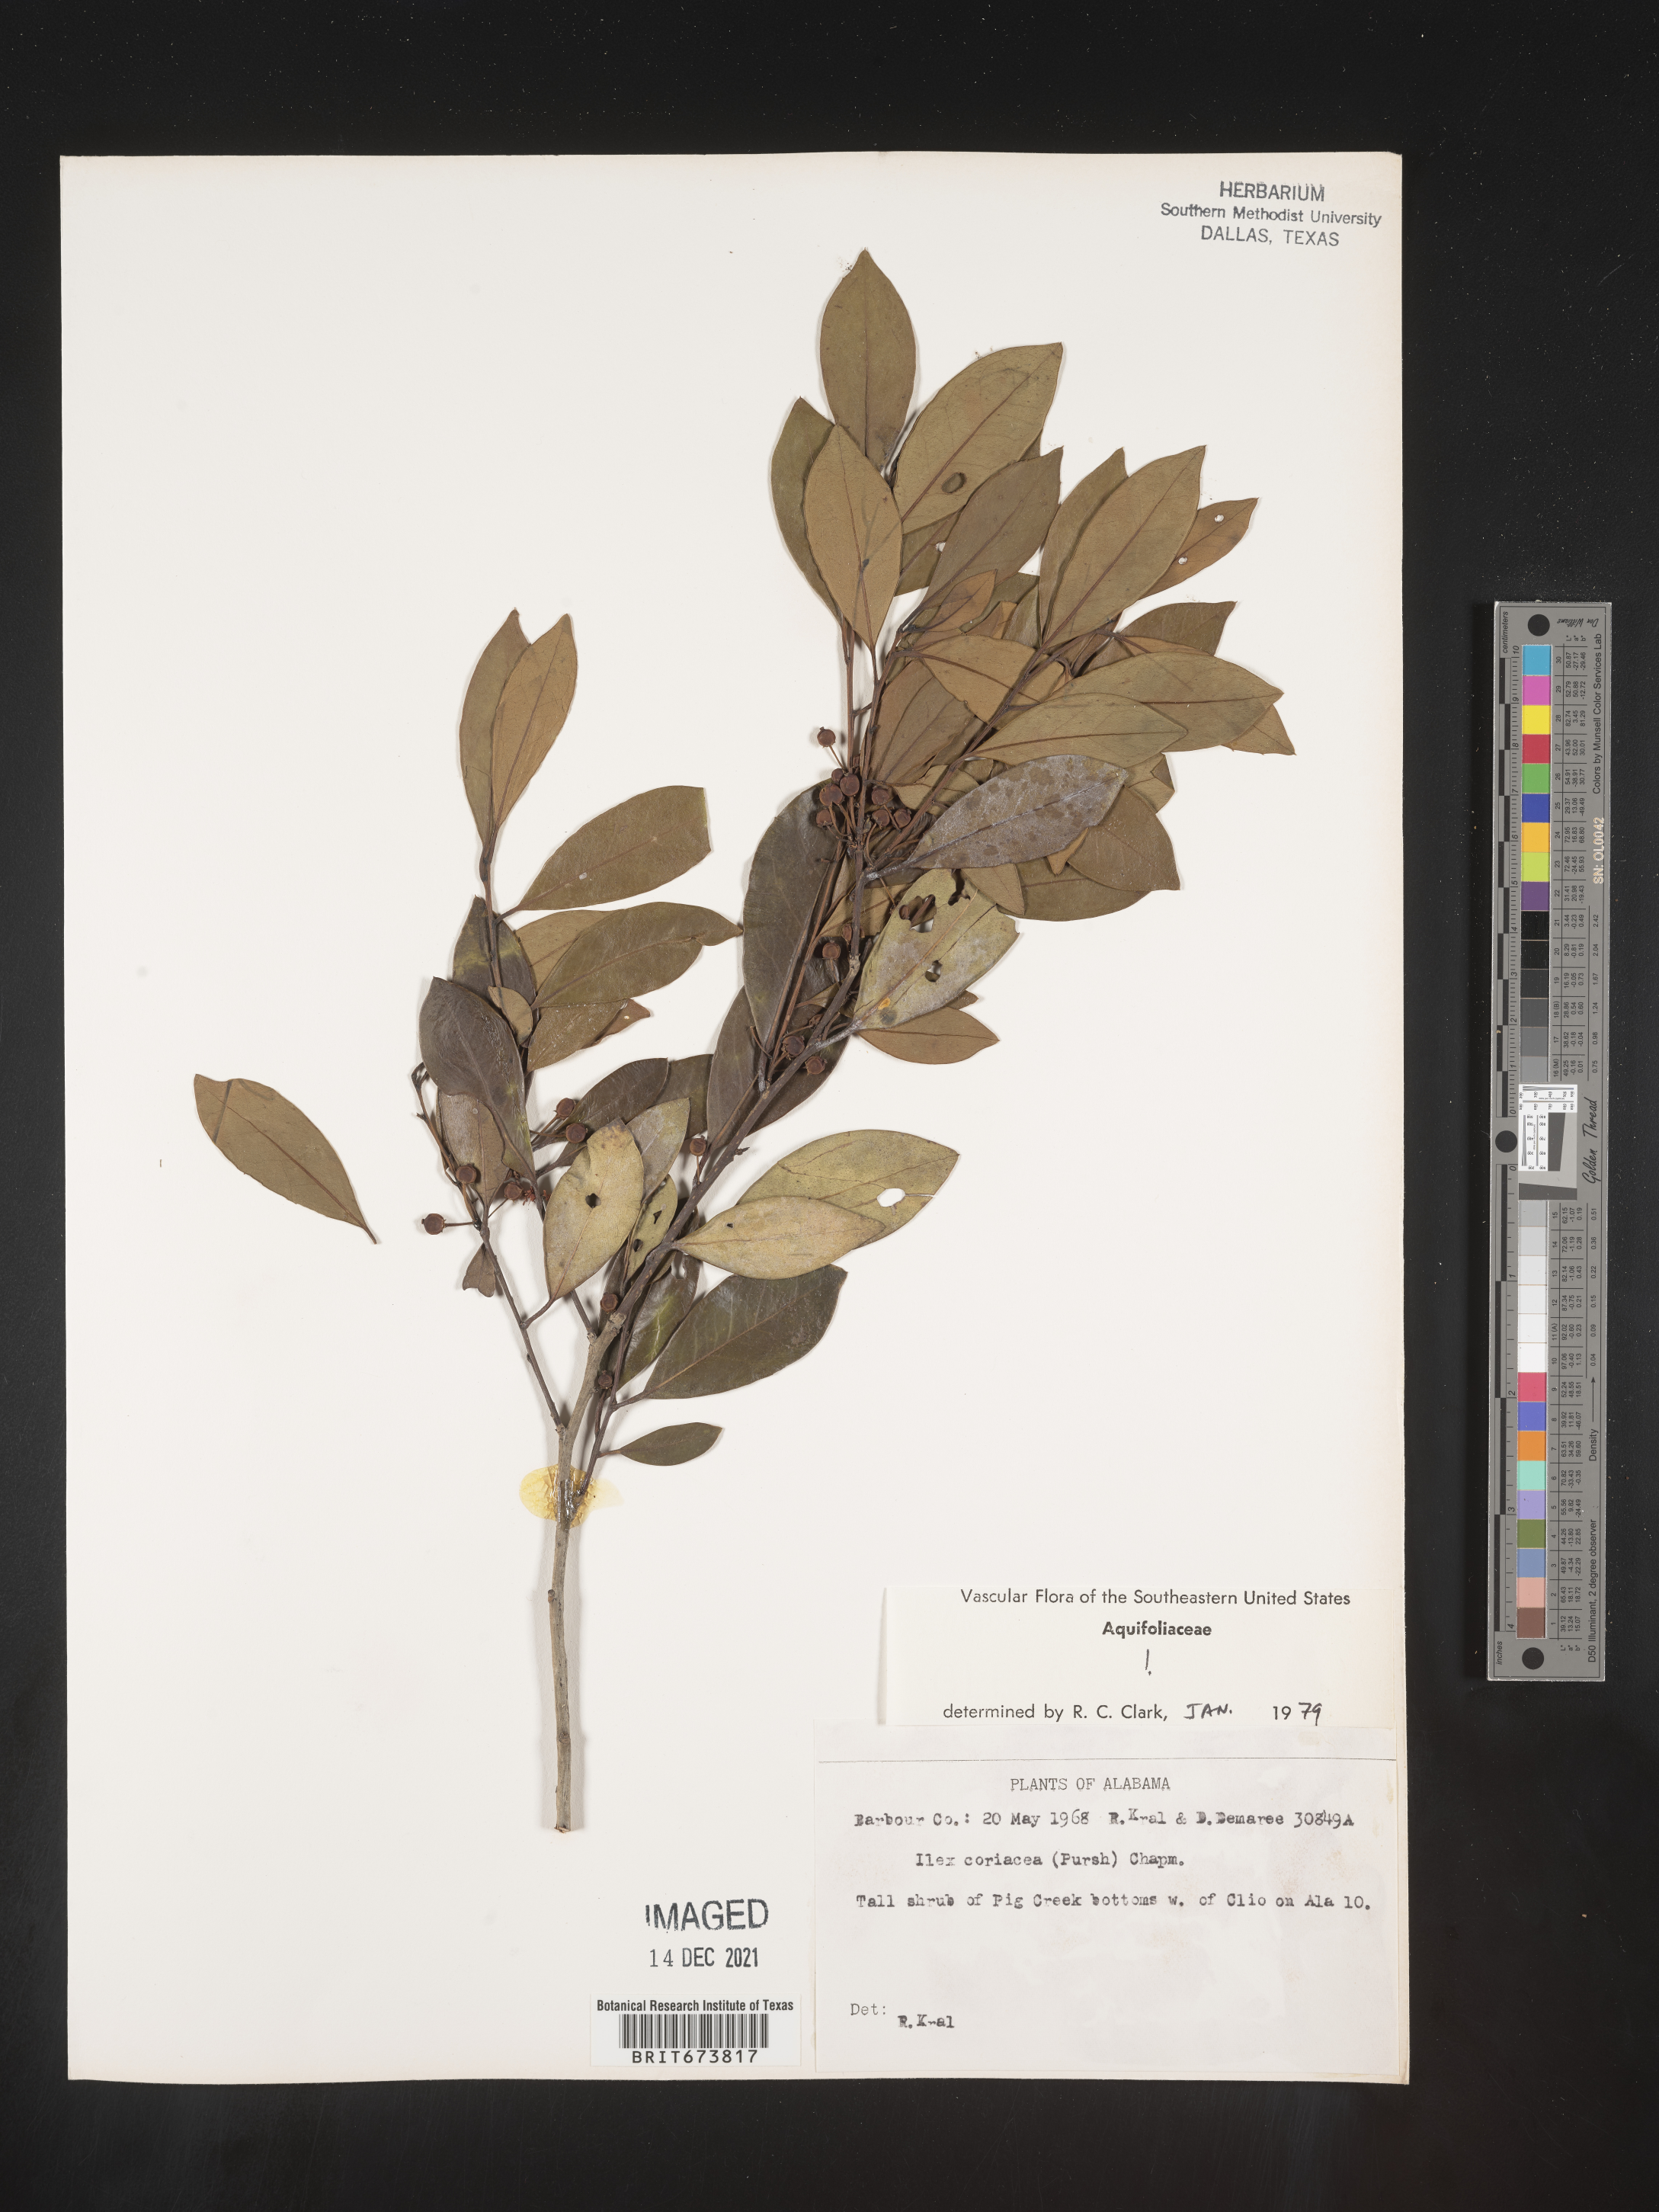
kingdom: Plantae
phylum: Tracheophyta
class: Magnoliopsida
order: Aquifoliales
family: Aquifoliaceae
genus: Ilex
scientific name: Ilex coriacea
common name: Sweet gallberry
